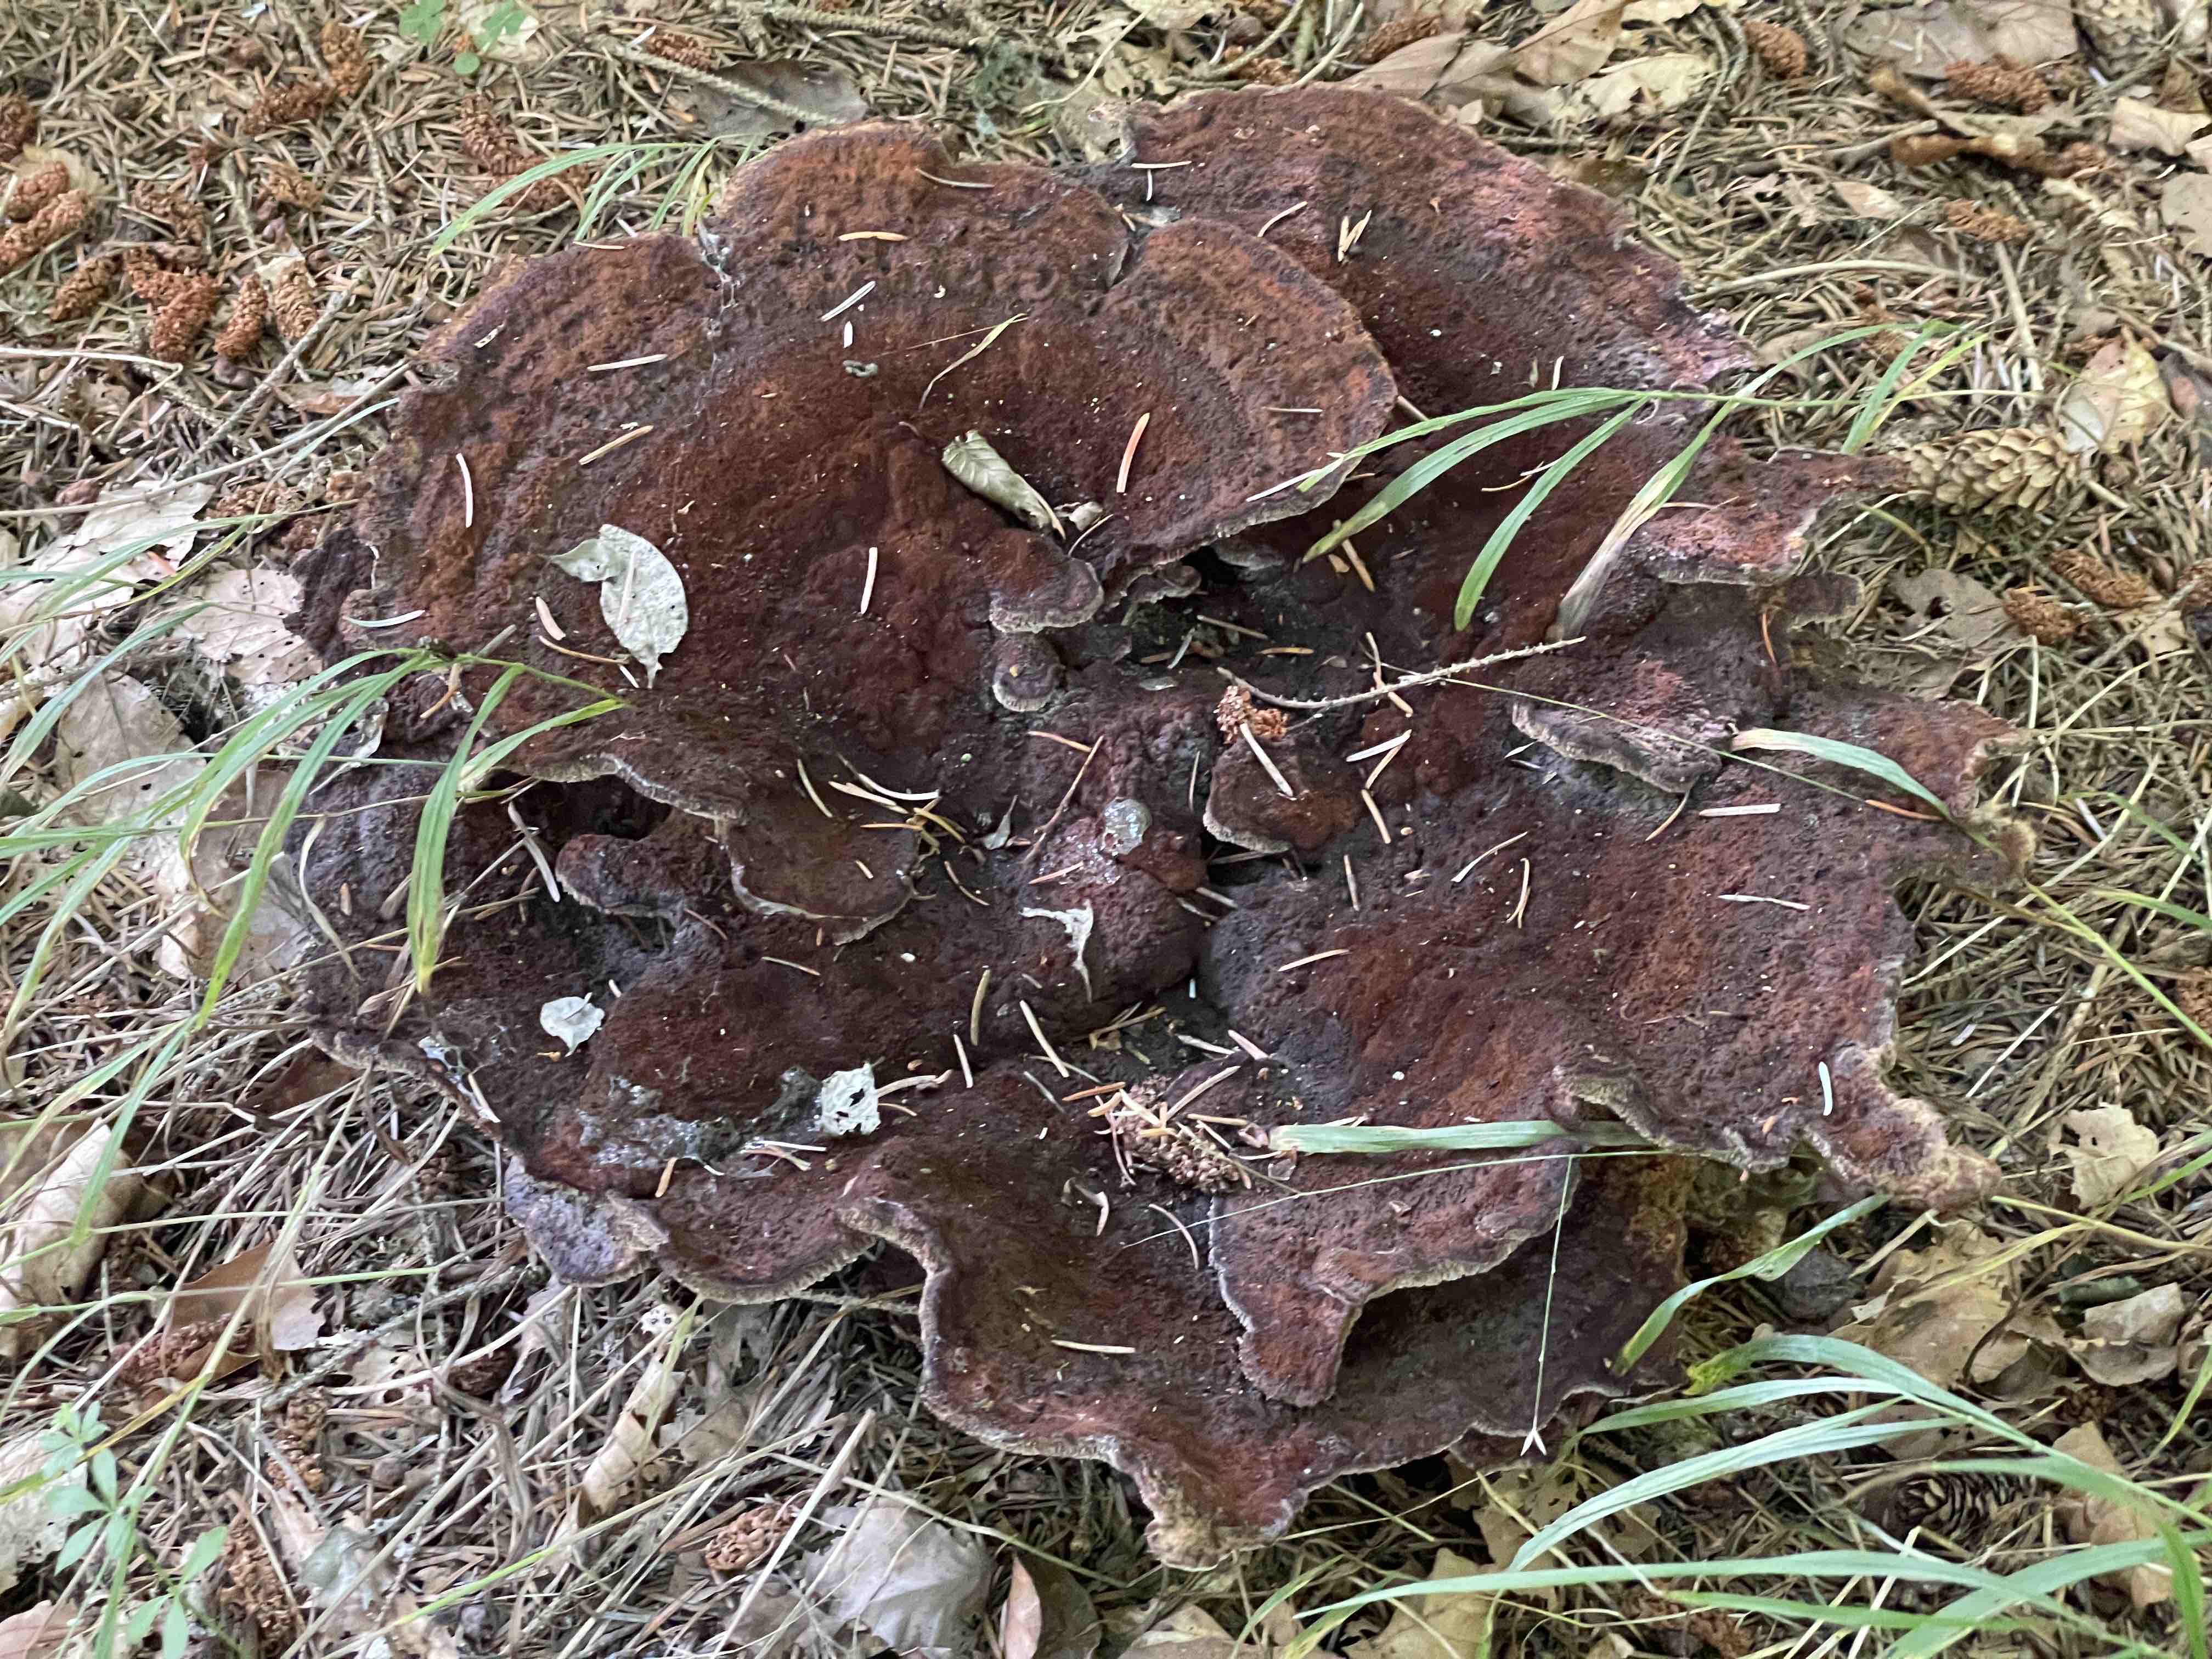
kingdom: Fungi
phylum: Basidiomycota
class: Agaricomycetes
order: Polyporales
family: Laetiporaceae
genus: Phaeolus
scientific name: Phaeolus schweinitzii
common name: brunporesvamp
